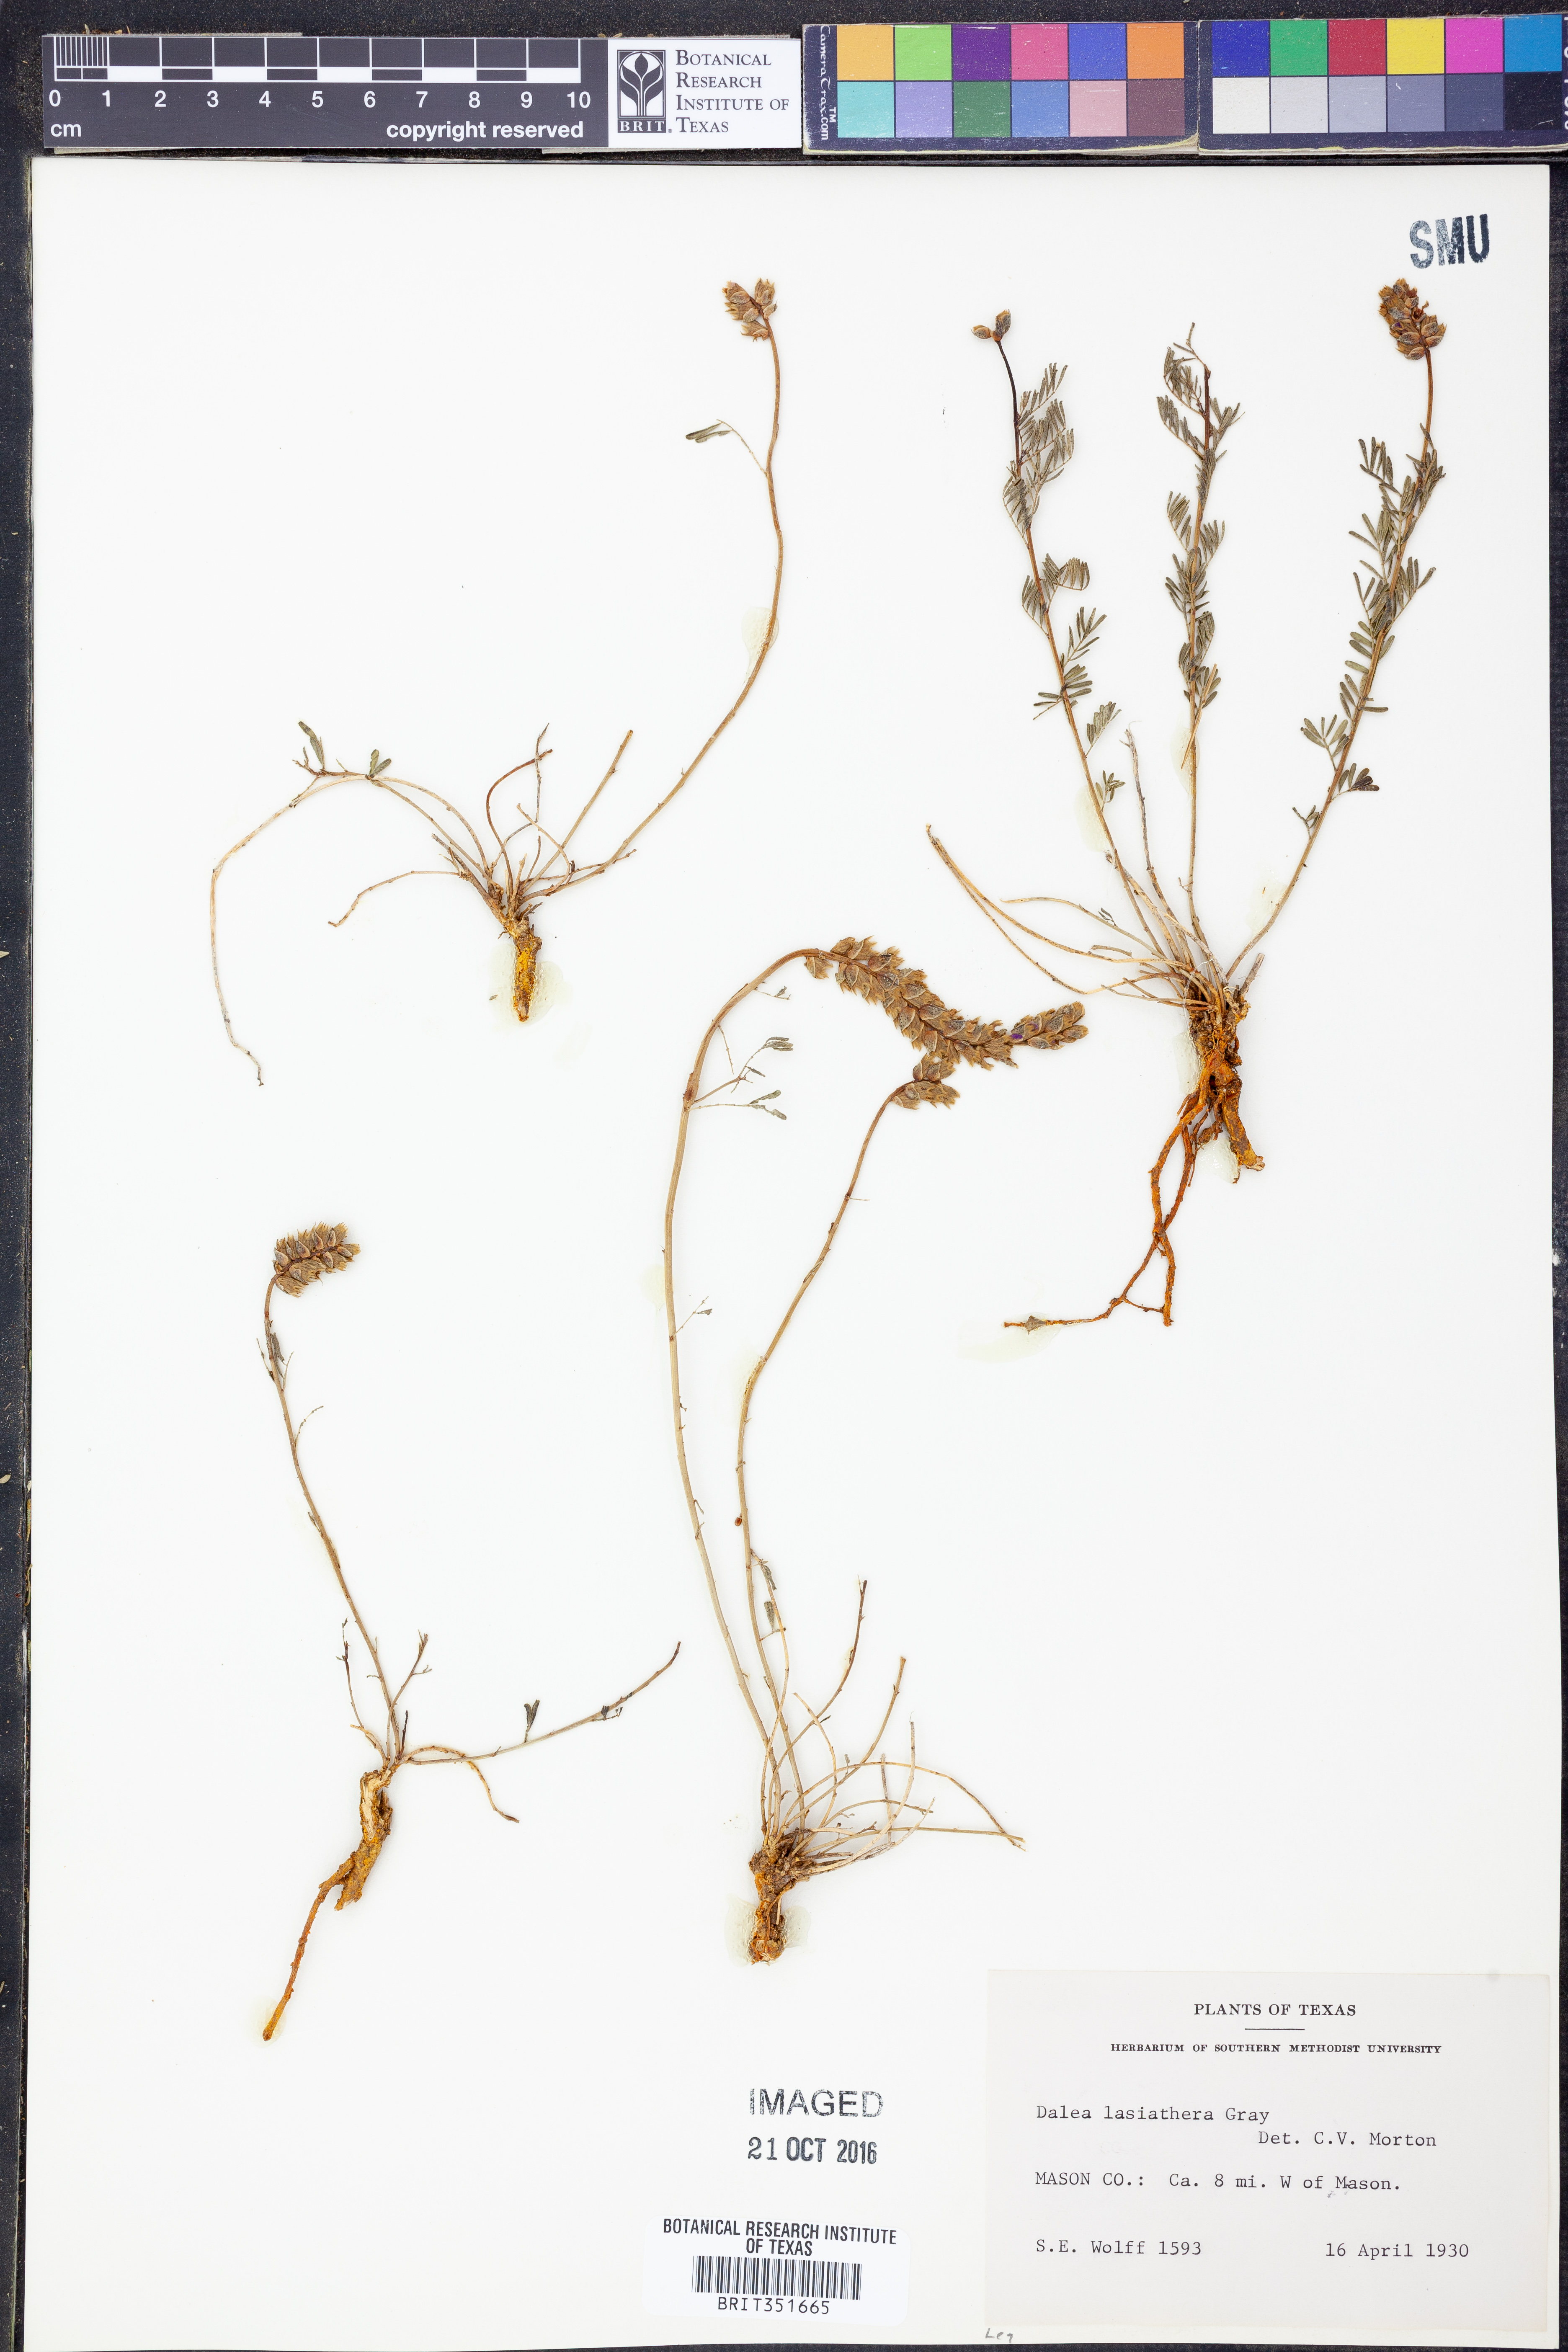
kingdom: Plantae
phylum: Tracheophyta
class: Magnoliopsida
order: Fabales
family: Fabaceae
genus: Dalea
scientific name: Dalea lasiathera
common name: Purple prairie-clover
